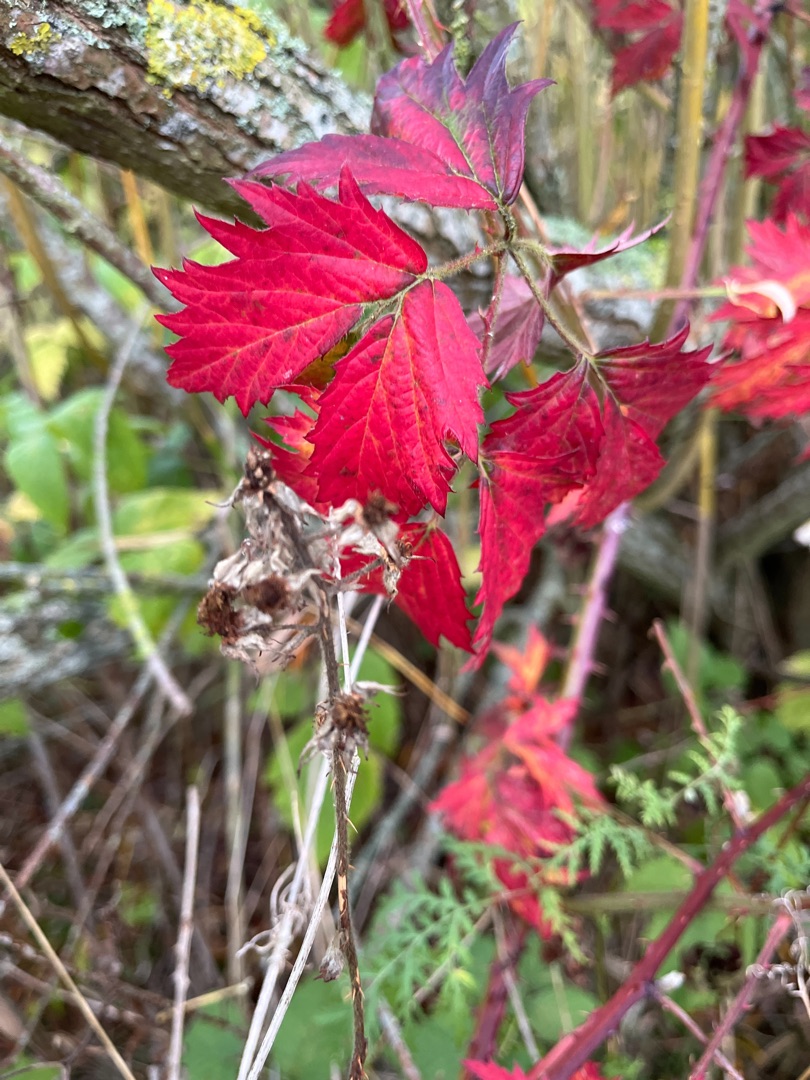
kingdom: Plantae
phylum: Tracheophyta
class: Magnoliopsida
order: Rosales
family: Rosaceae
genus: Rubus
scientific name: Rubus laciniatus
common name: Fliget brombær
